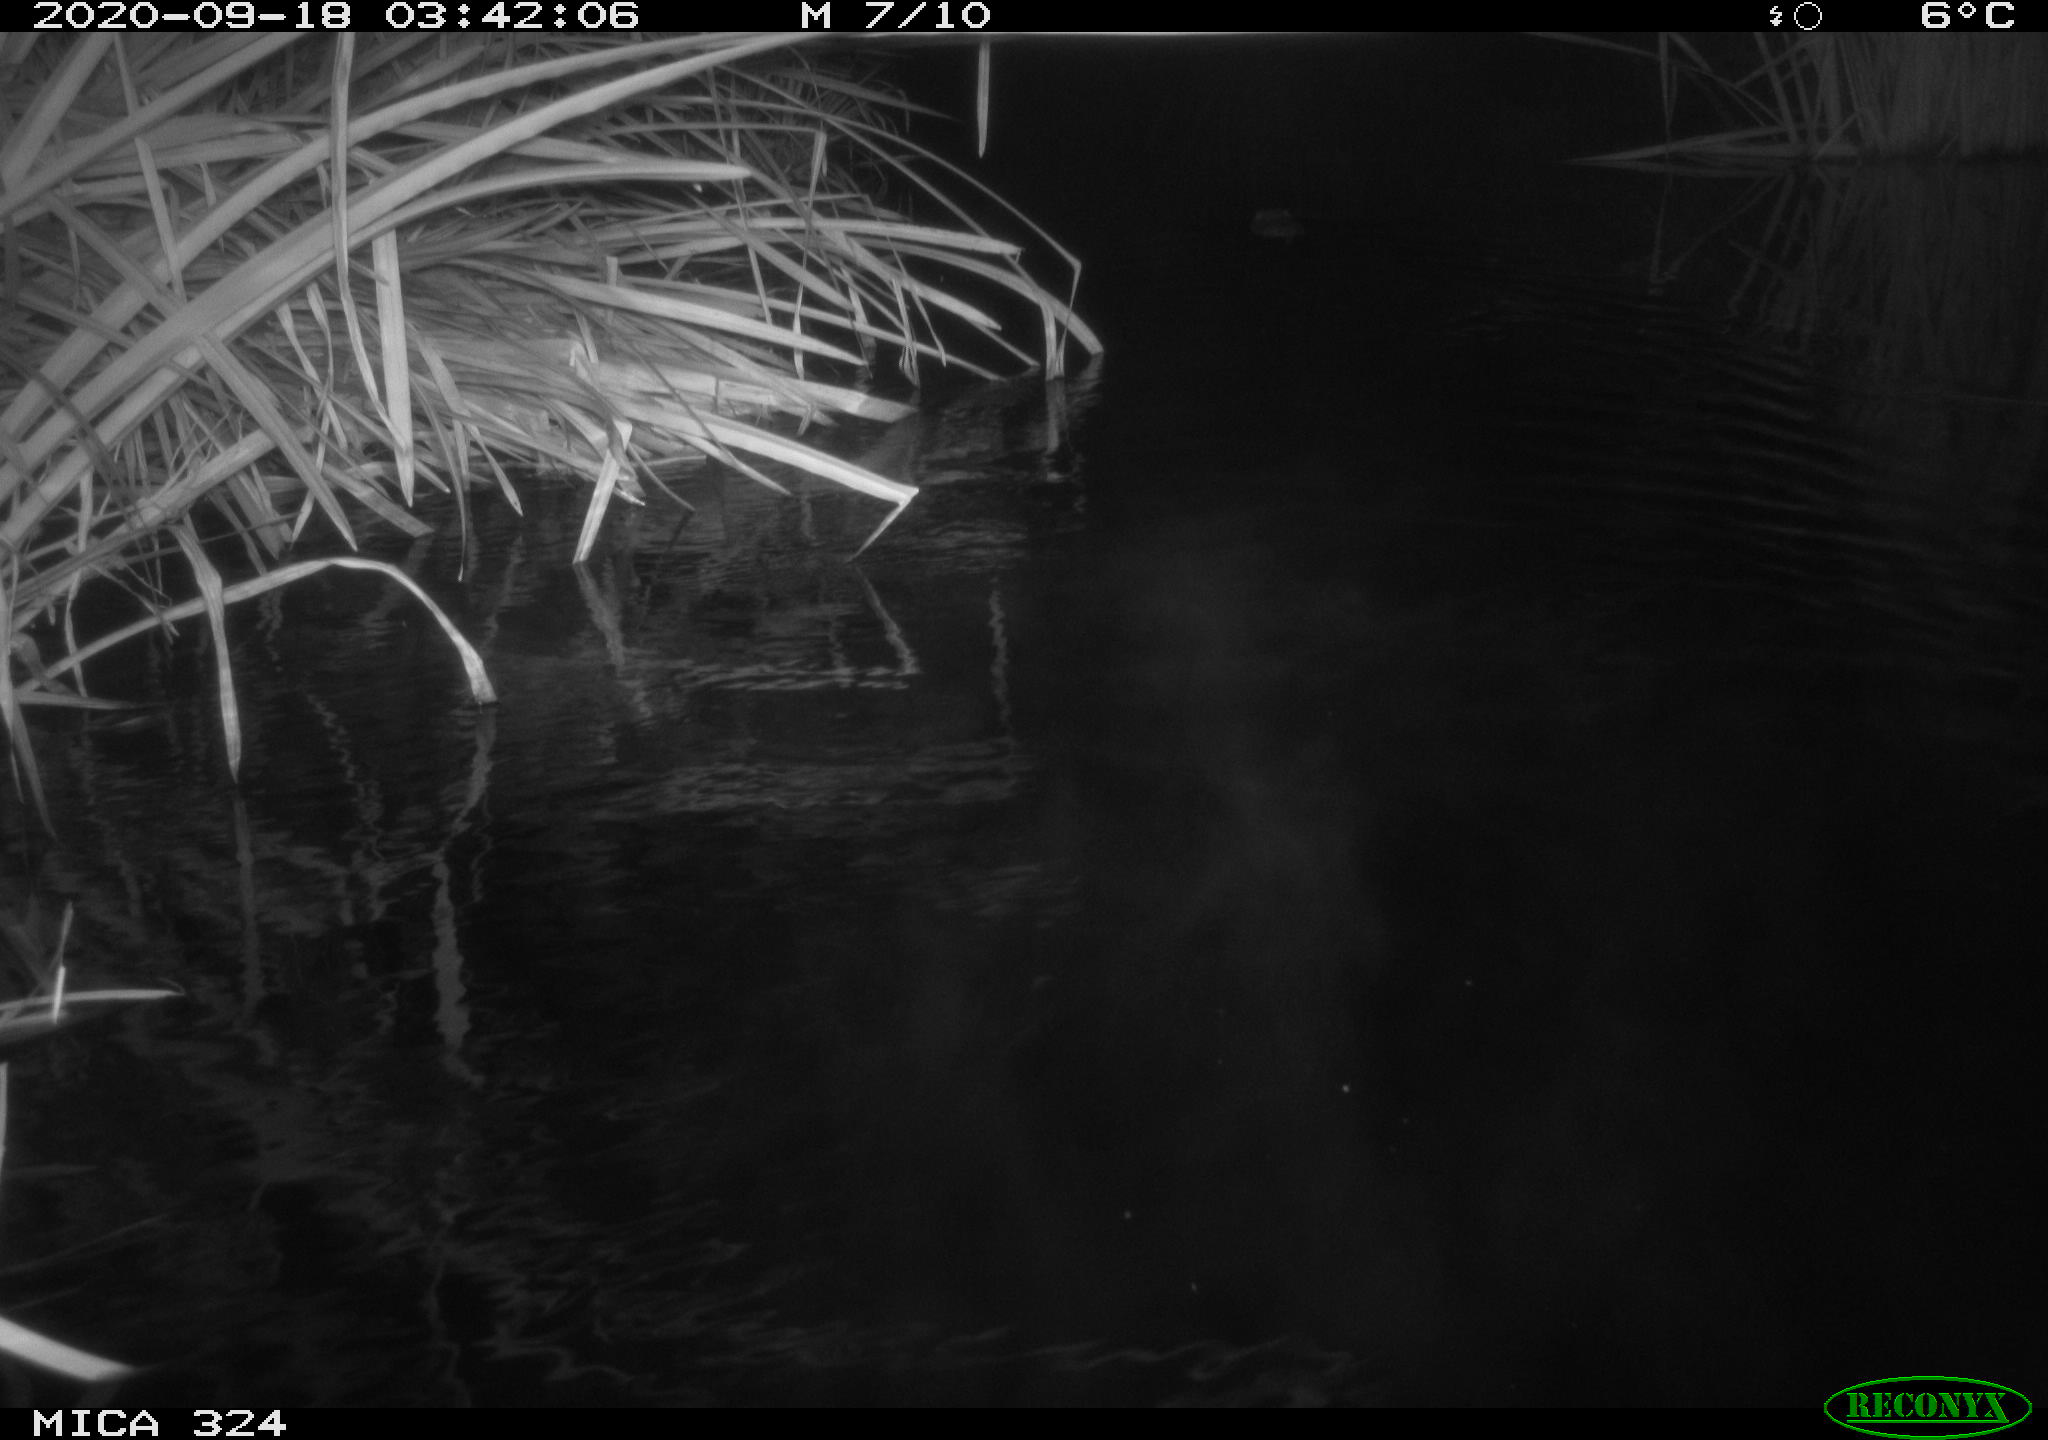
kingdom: Animalia
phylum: Chordata
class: Mammalia
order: Rodentia
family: Cricetidae
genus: Ondatra
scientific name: Ondatra zibethicus
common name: Muskrat
